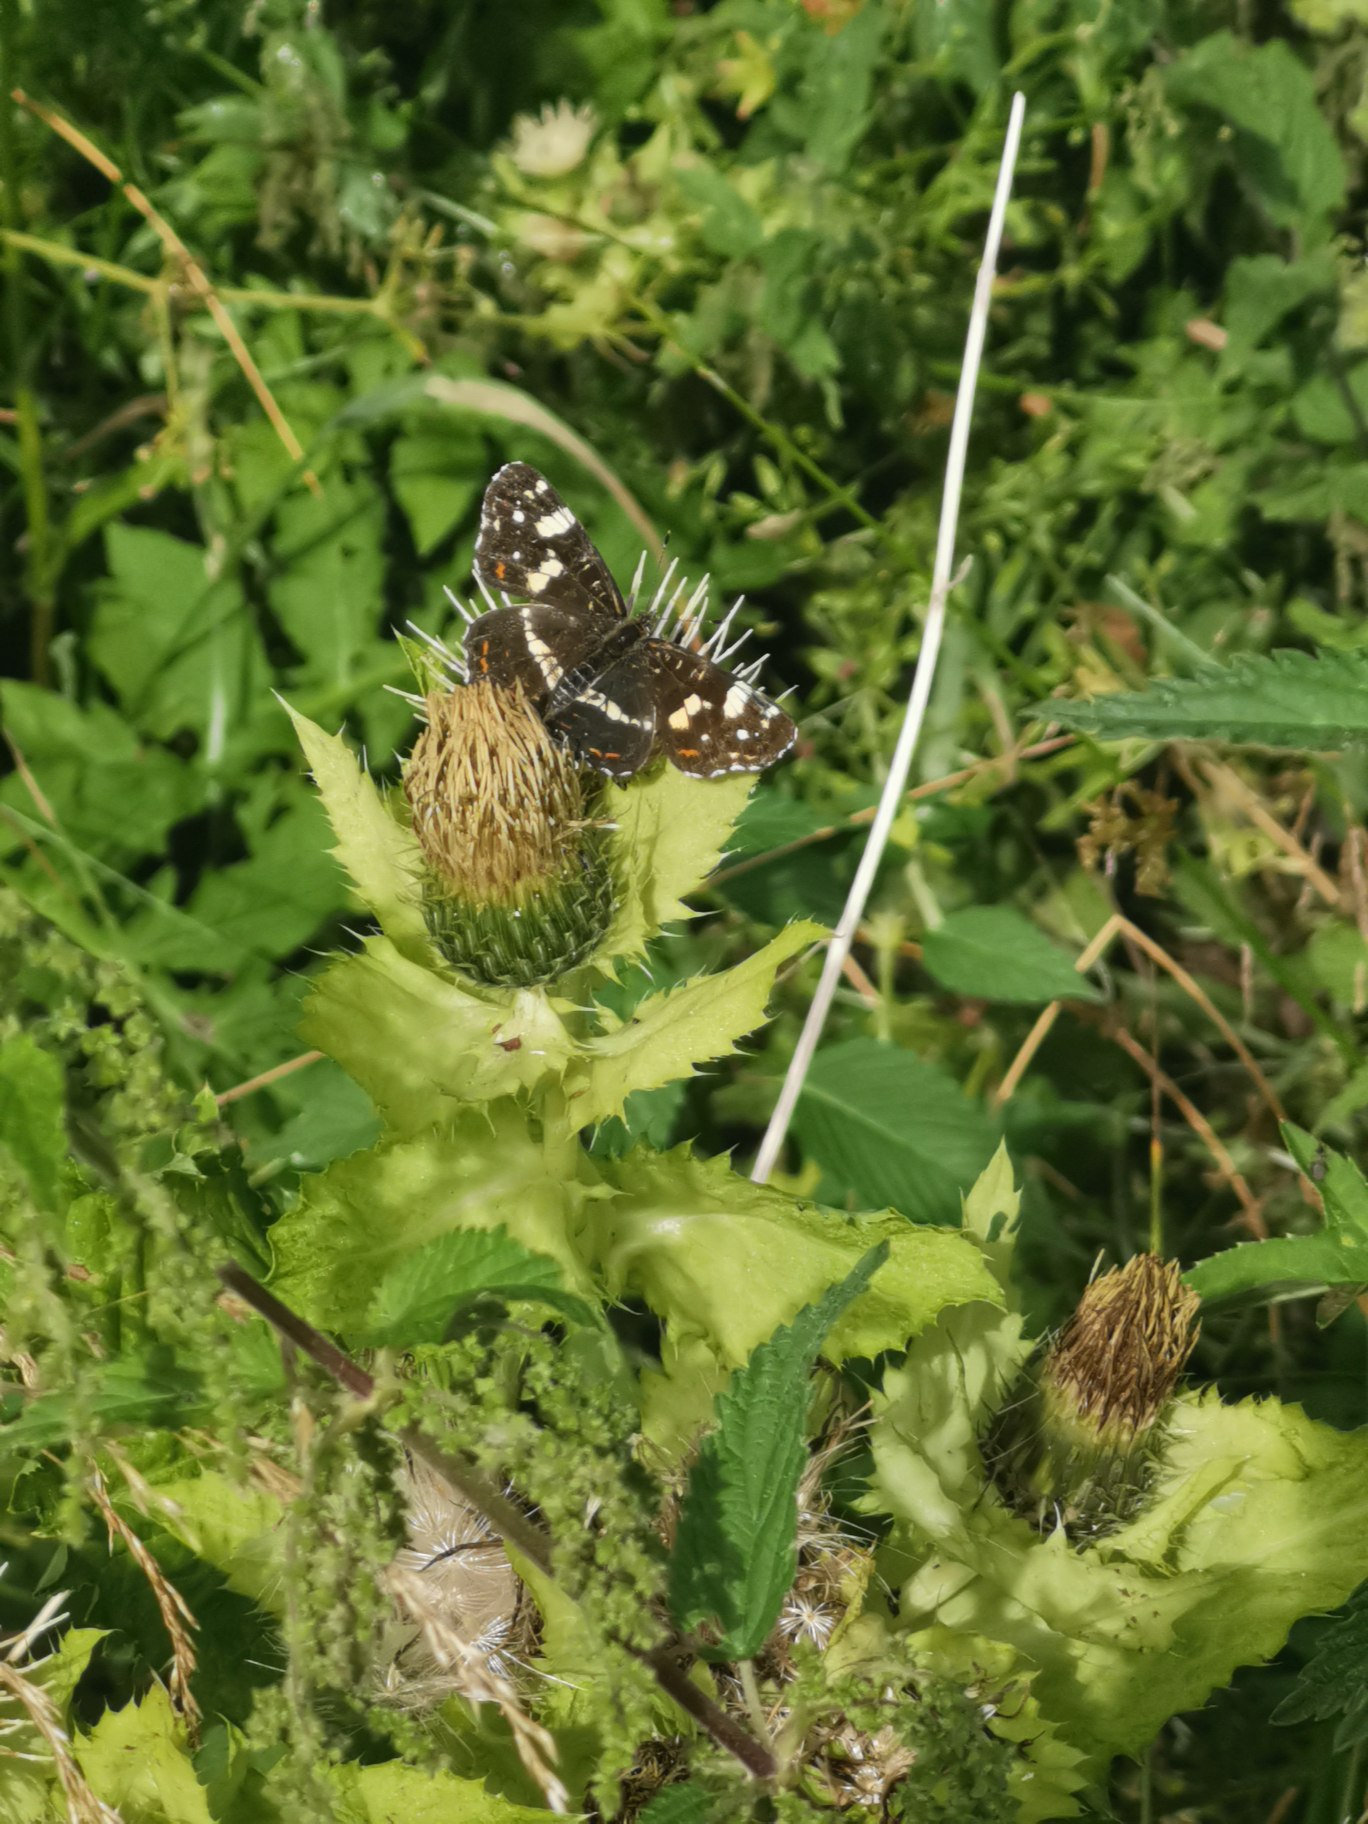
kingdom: Animalia
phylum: Arthropoda
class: Insecta
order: Lepidoptera
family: Nymphalidae
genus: Araschnia
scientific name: Araschnia levana
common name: Nældesommerfugl
